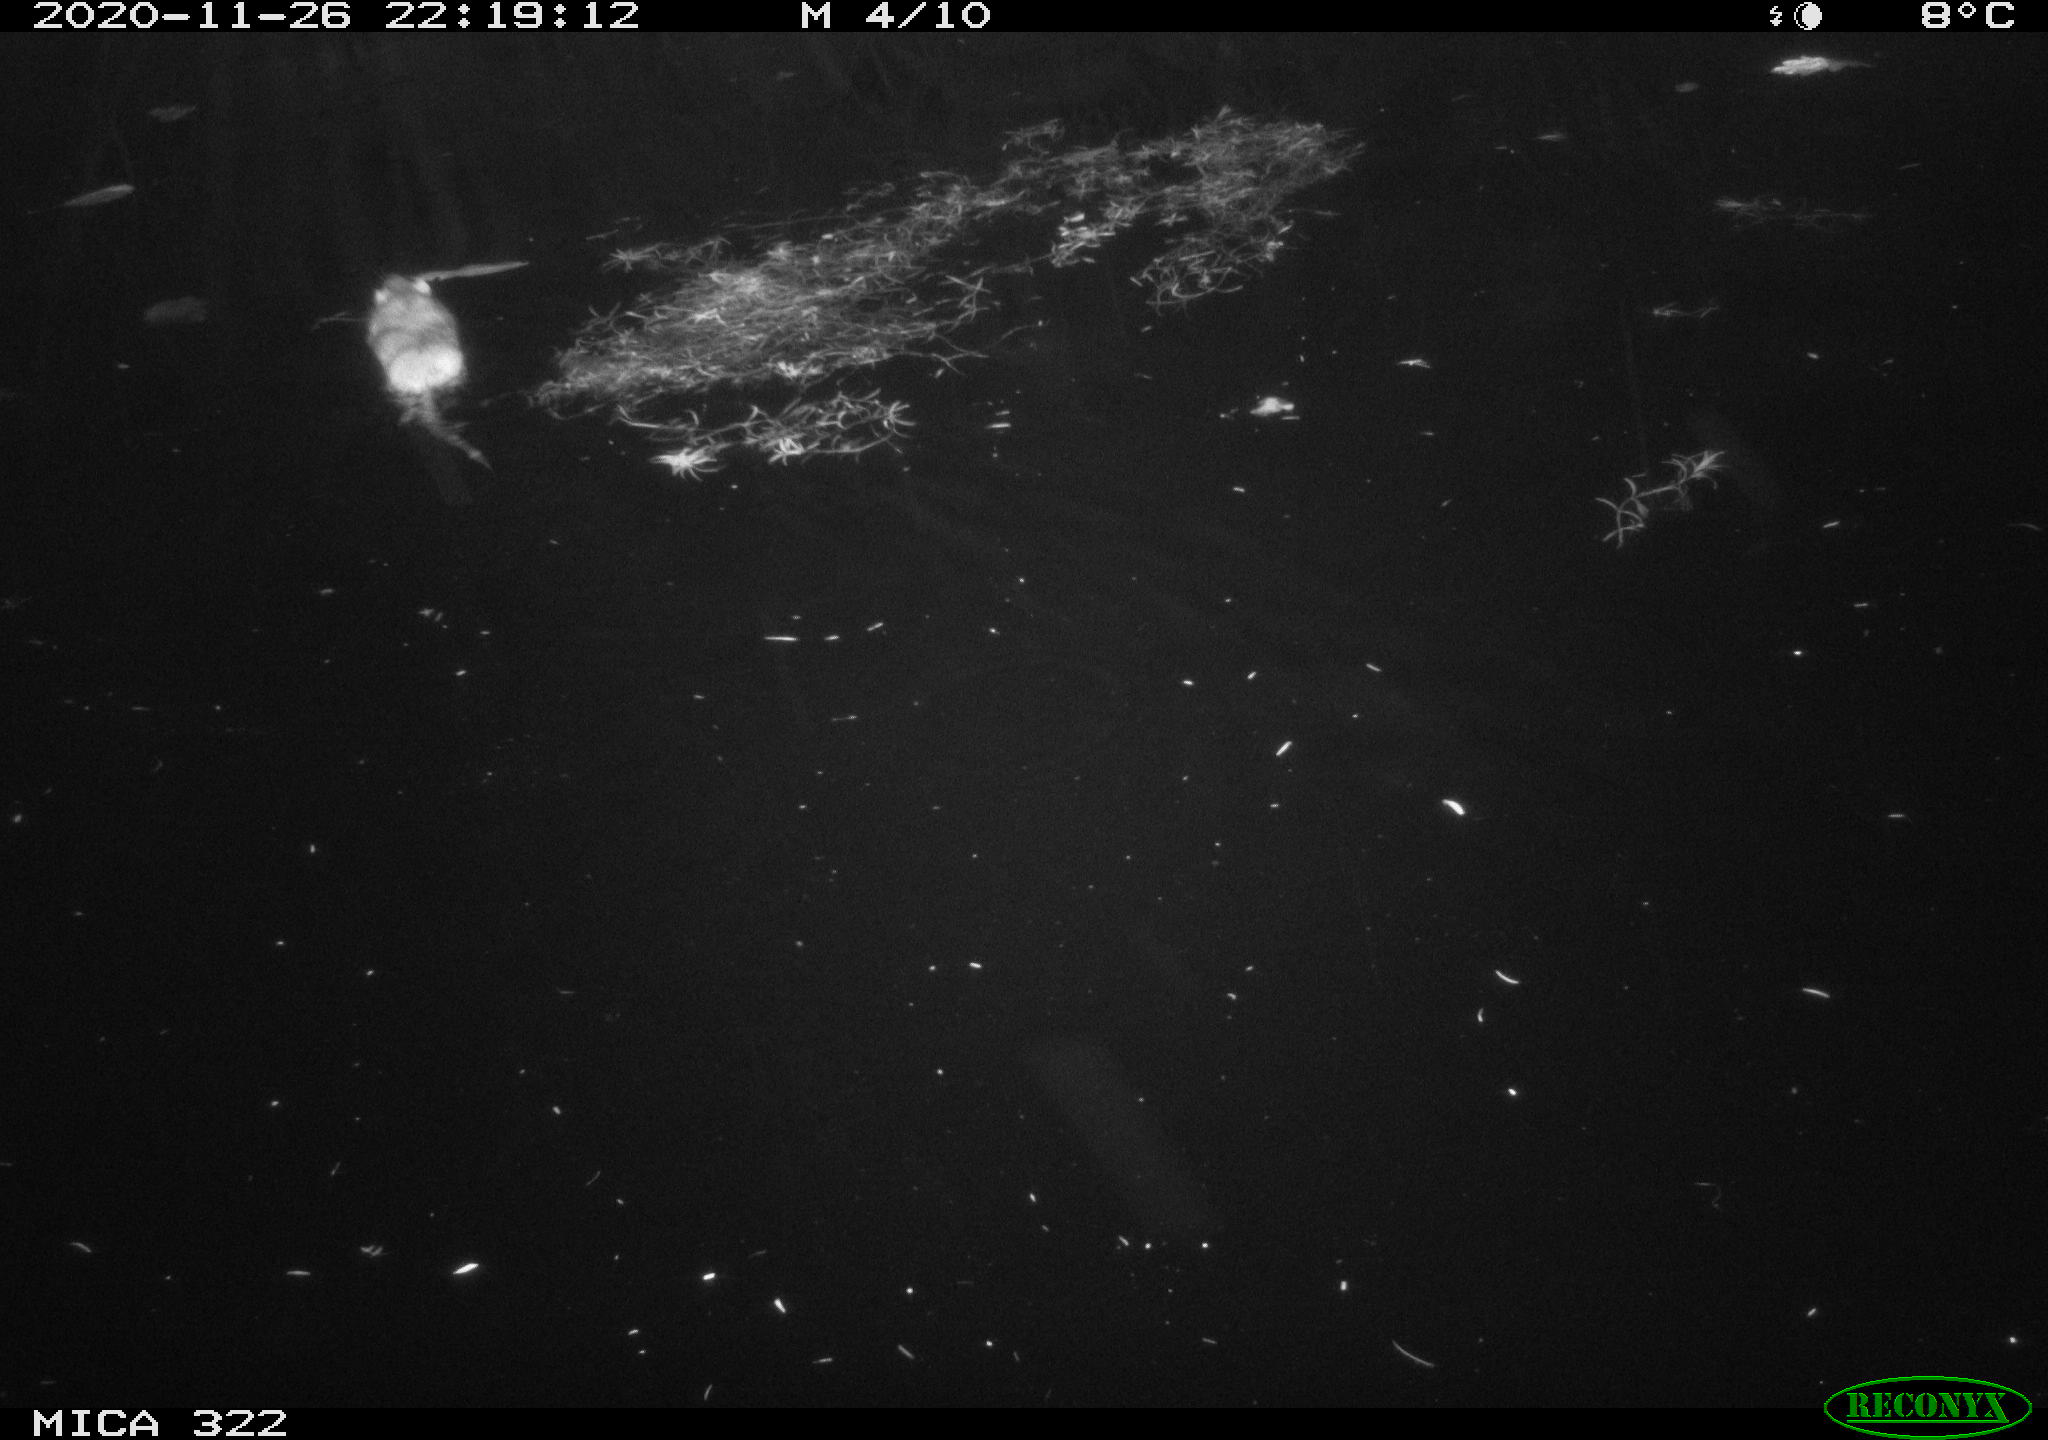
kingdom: Animalia
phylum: Chordata
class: Mammalia
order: Rodentia
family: Muridae
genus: Rattus
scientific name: Rattus norvegicus
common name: Brown rat
